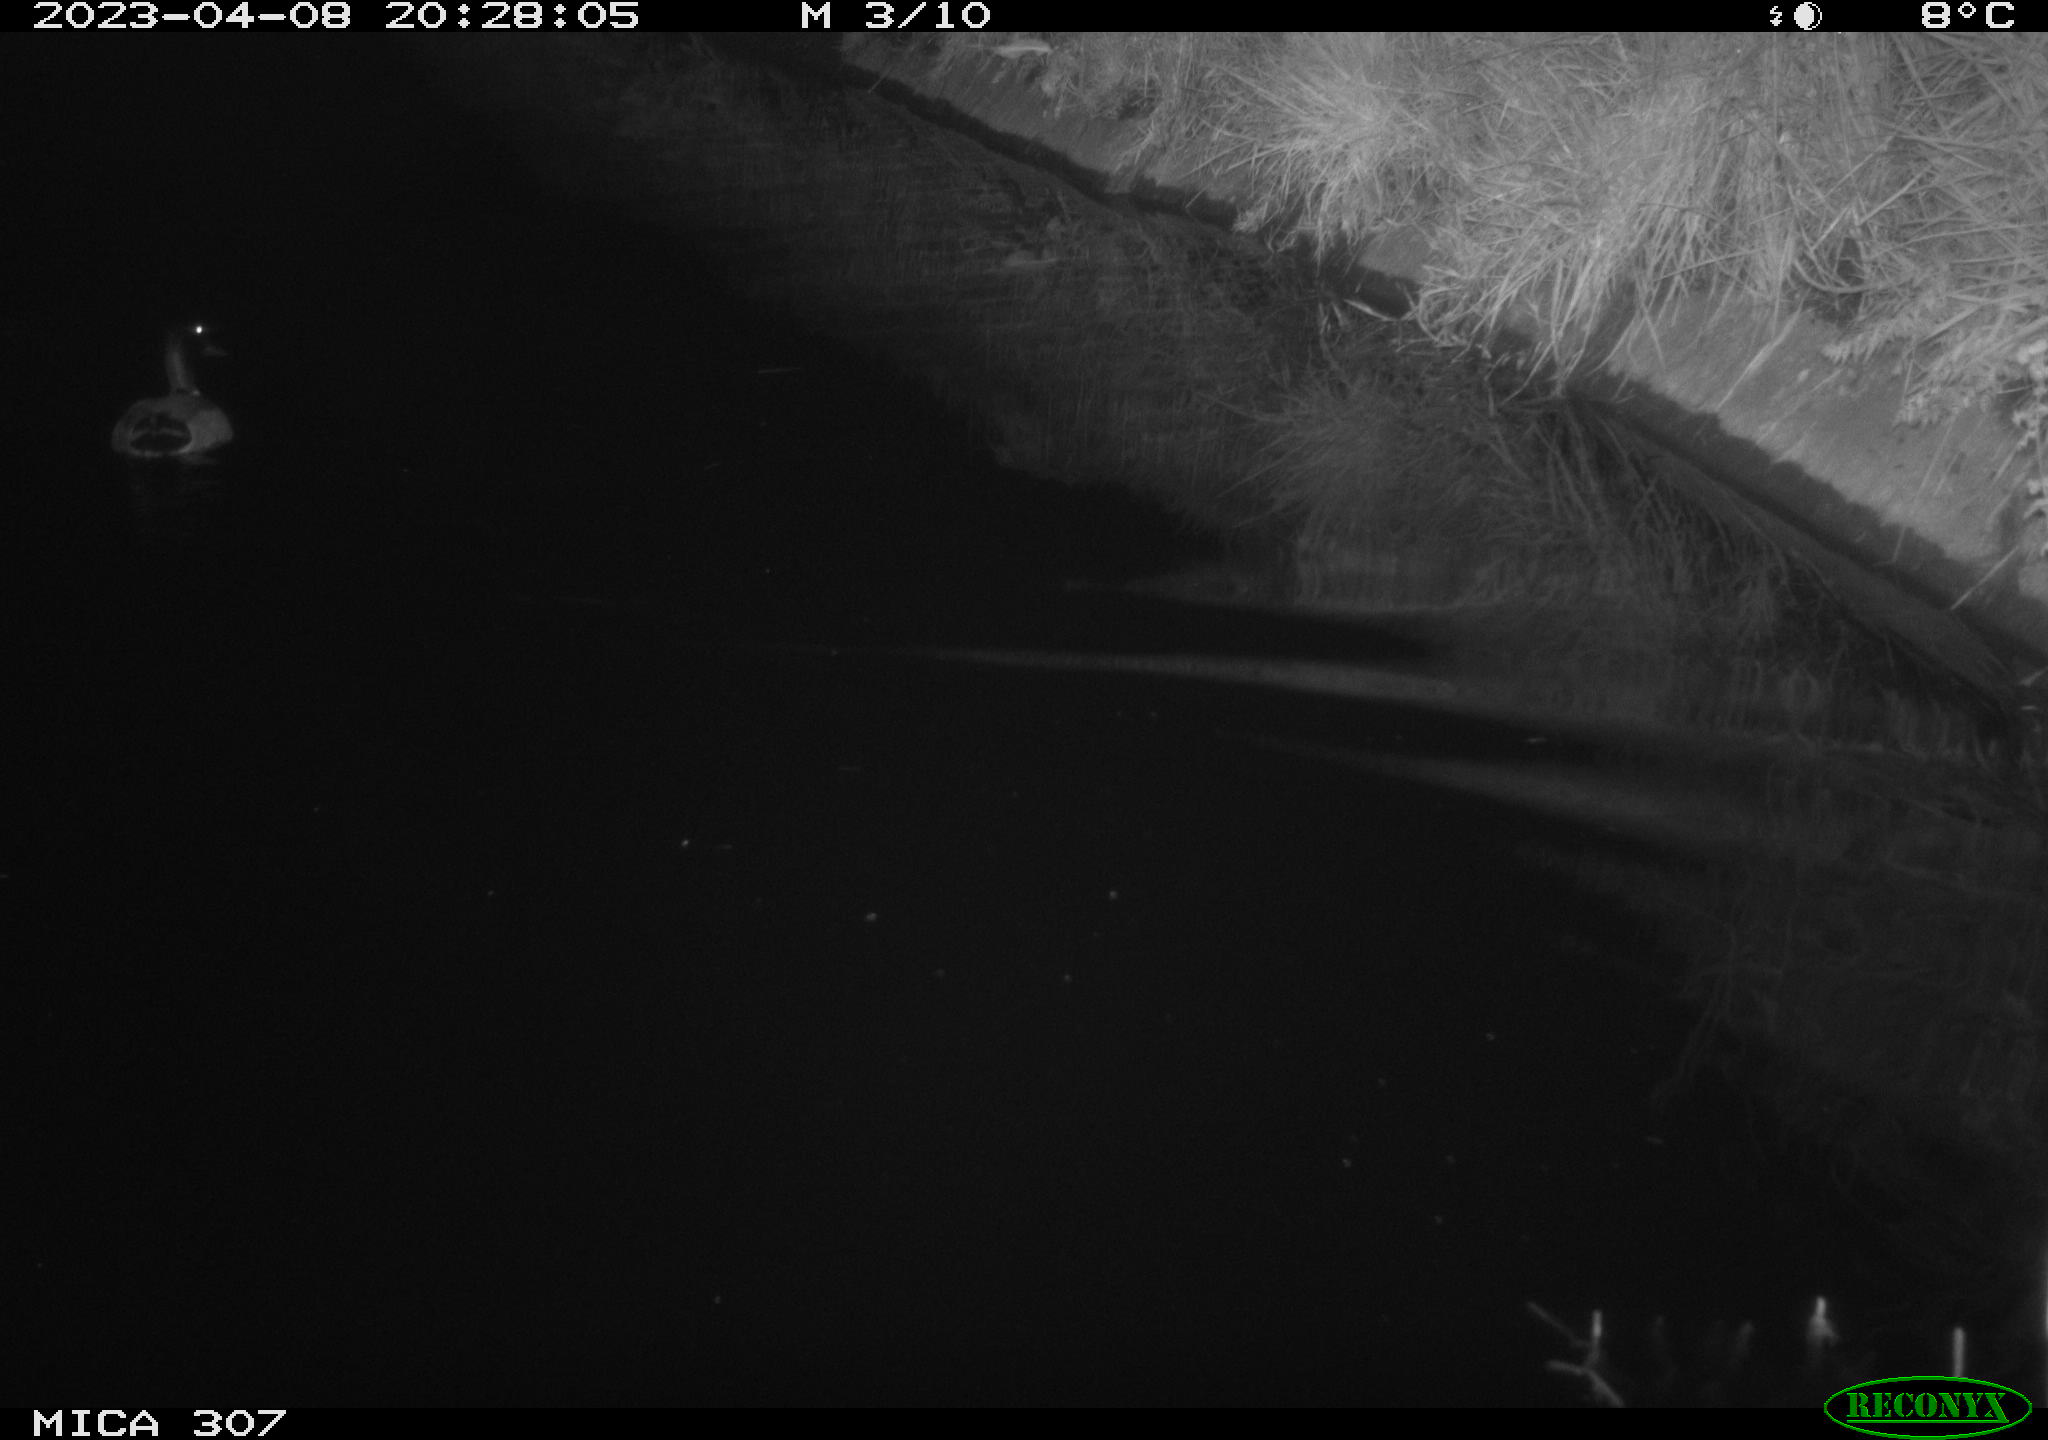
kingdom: Animalia
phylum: Chordata
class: Aves
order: Anseriformes
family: Anatidae
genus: Anas
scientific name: Anas
